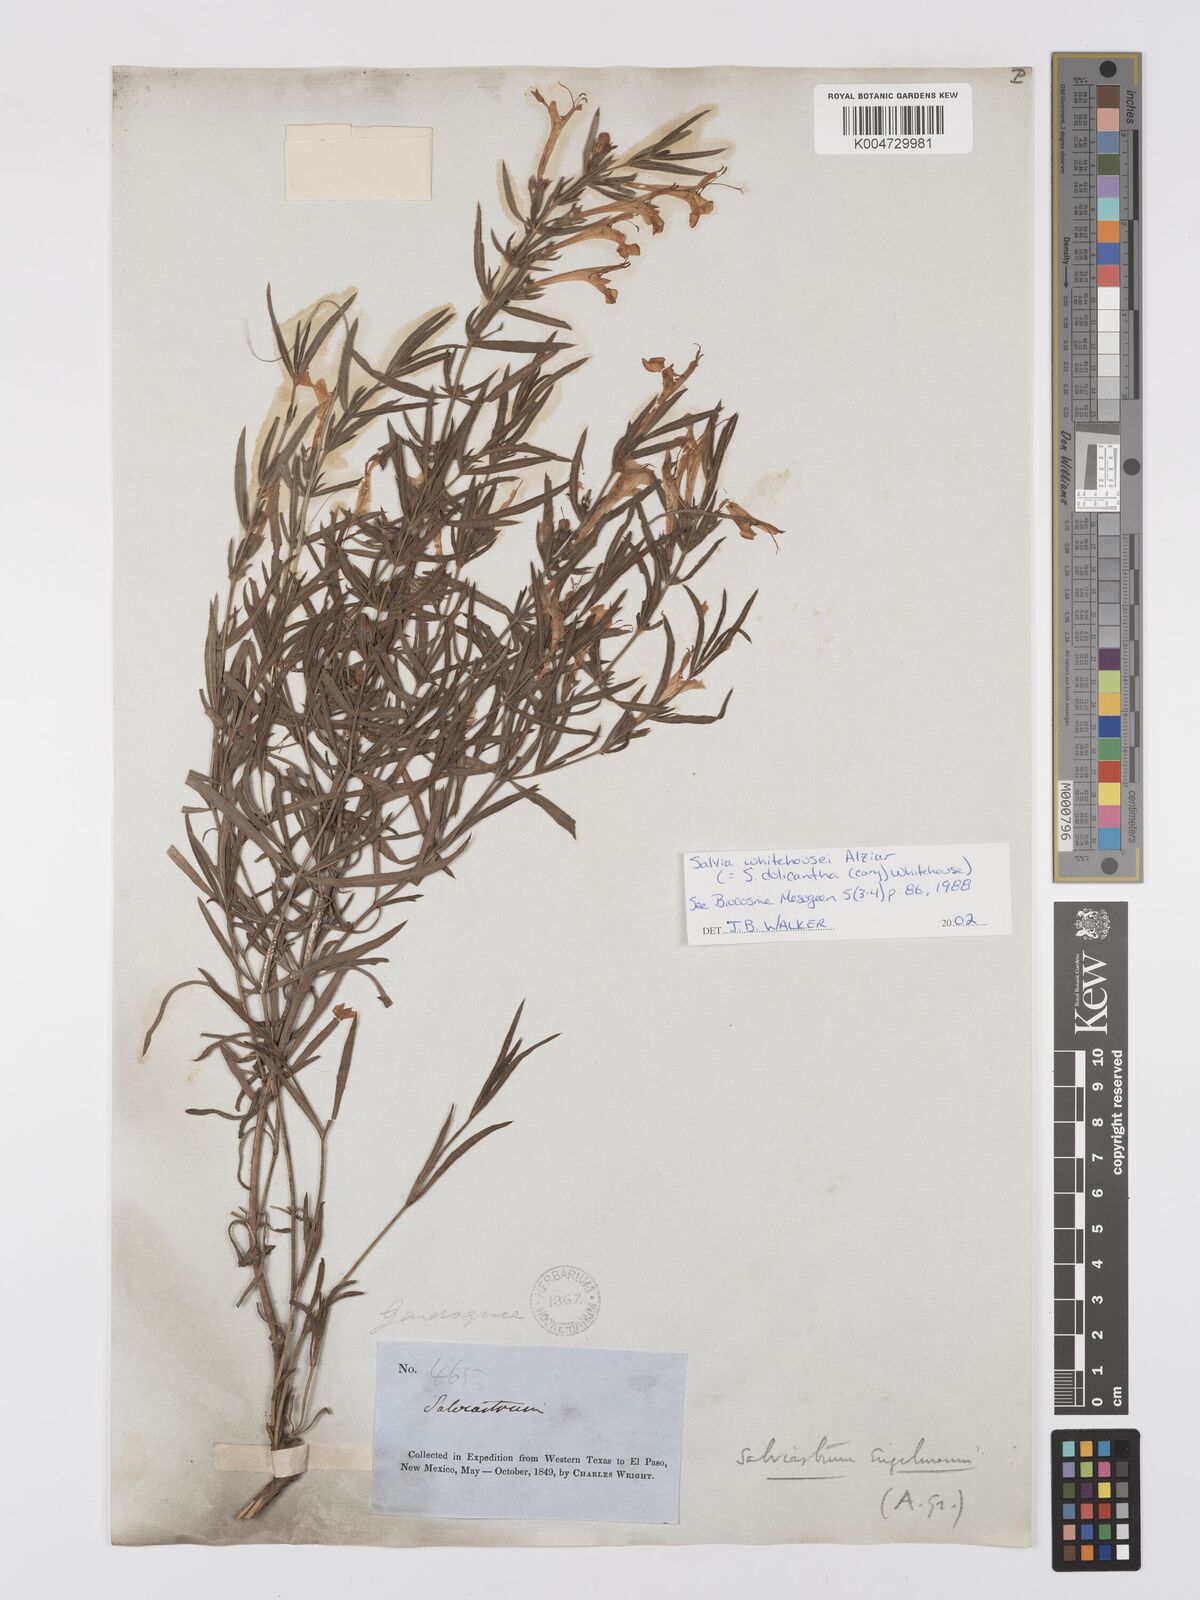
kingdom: Plantae
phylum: Tracheophyta
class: Magnoliopsida
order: Lamiales
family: Lamiaceae
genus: Salvia
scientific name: Salvia
